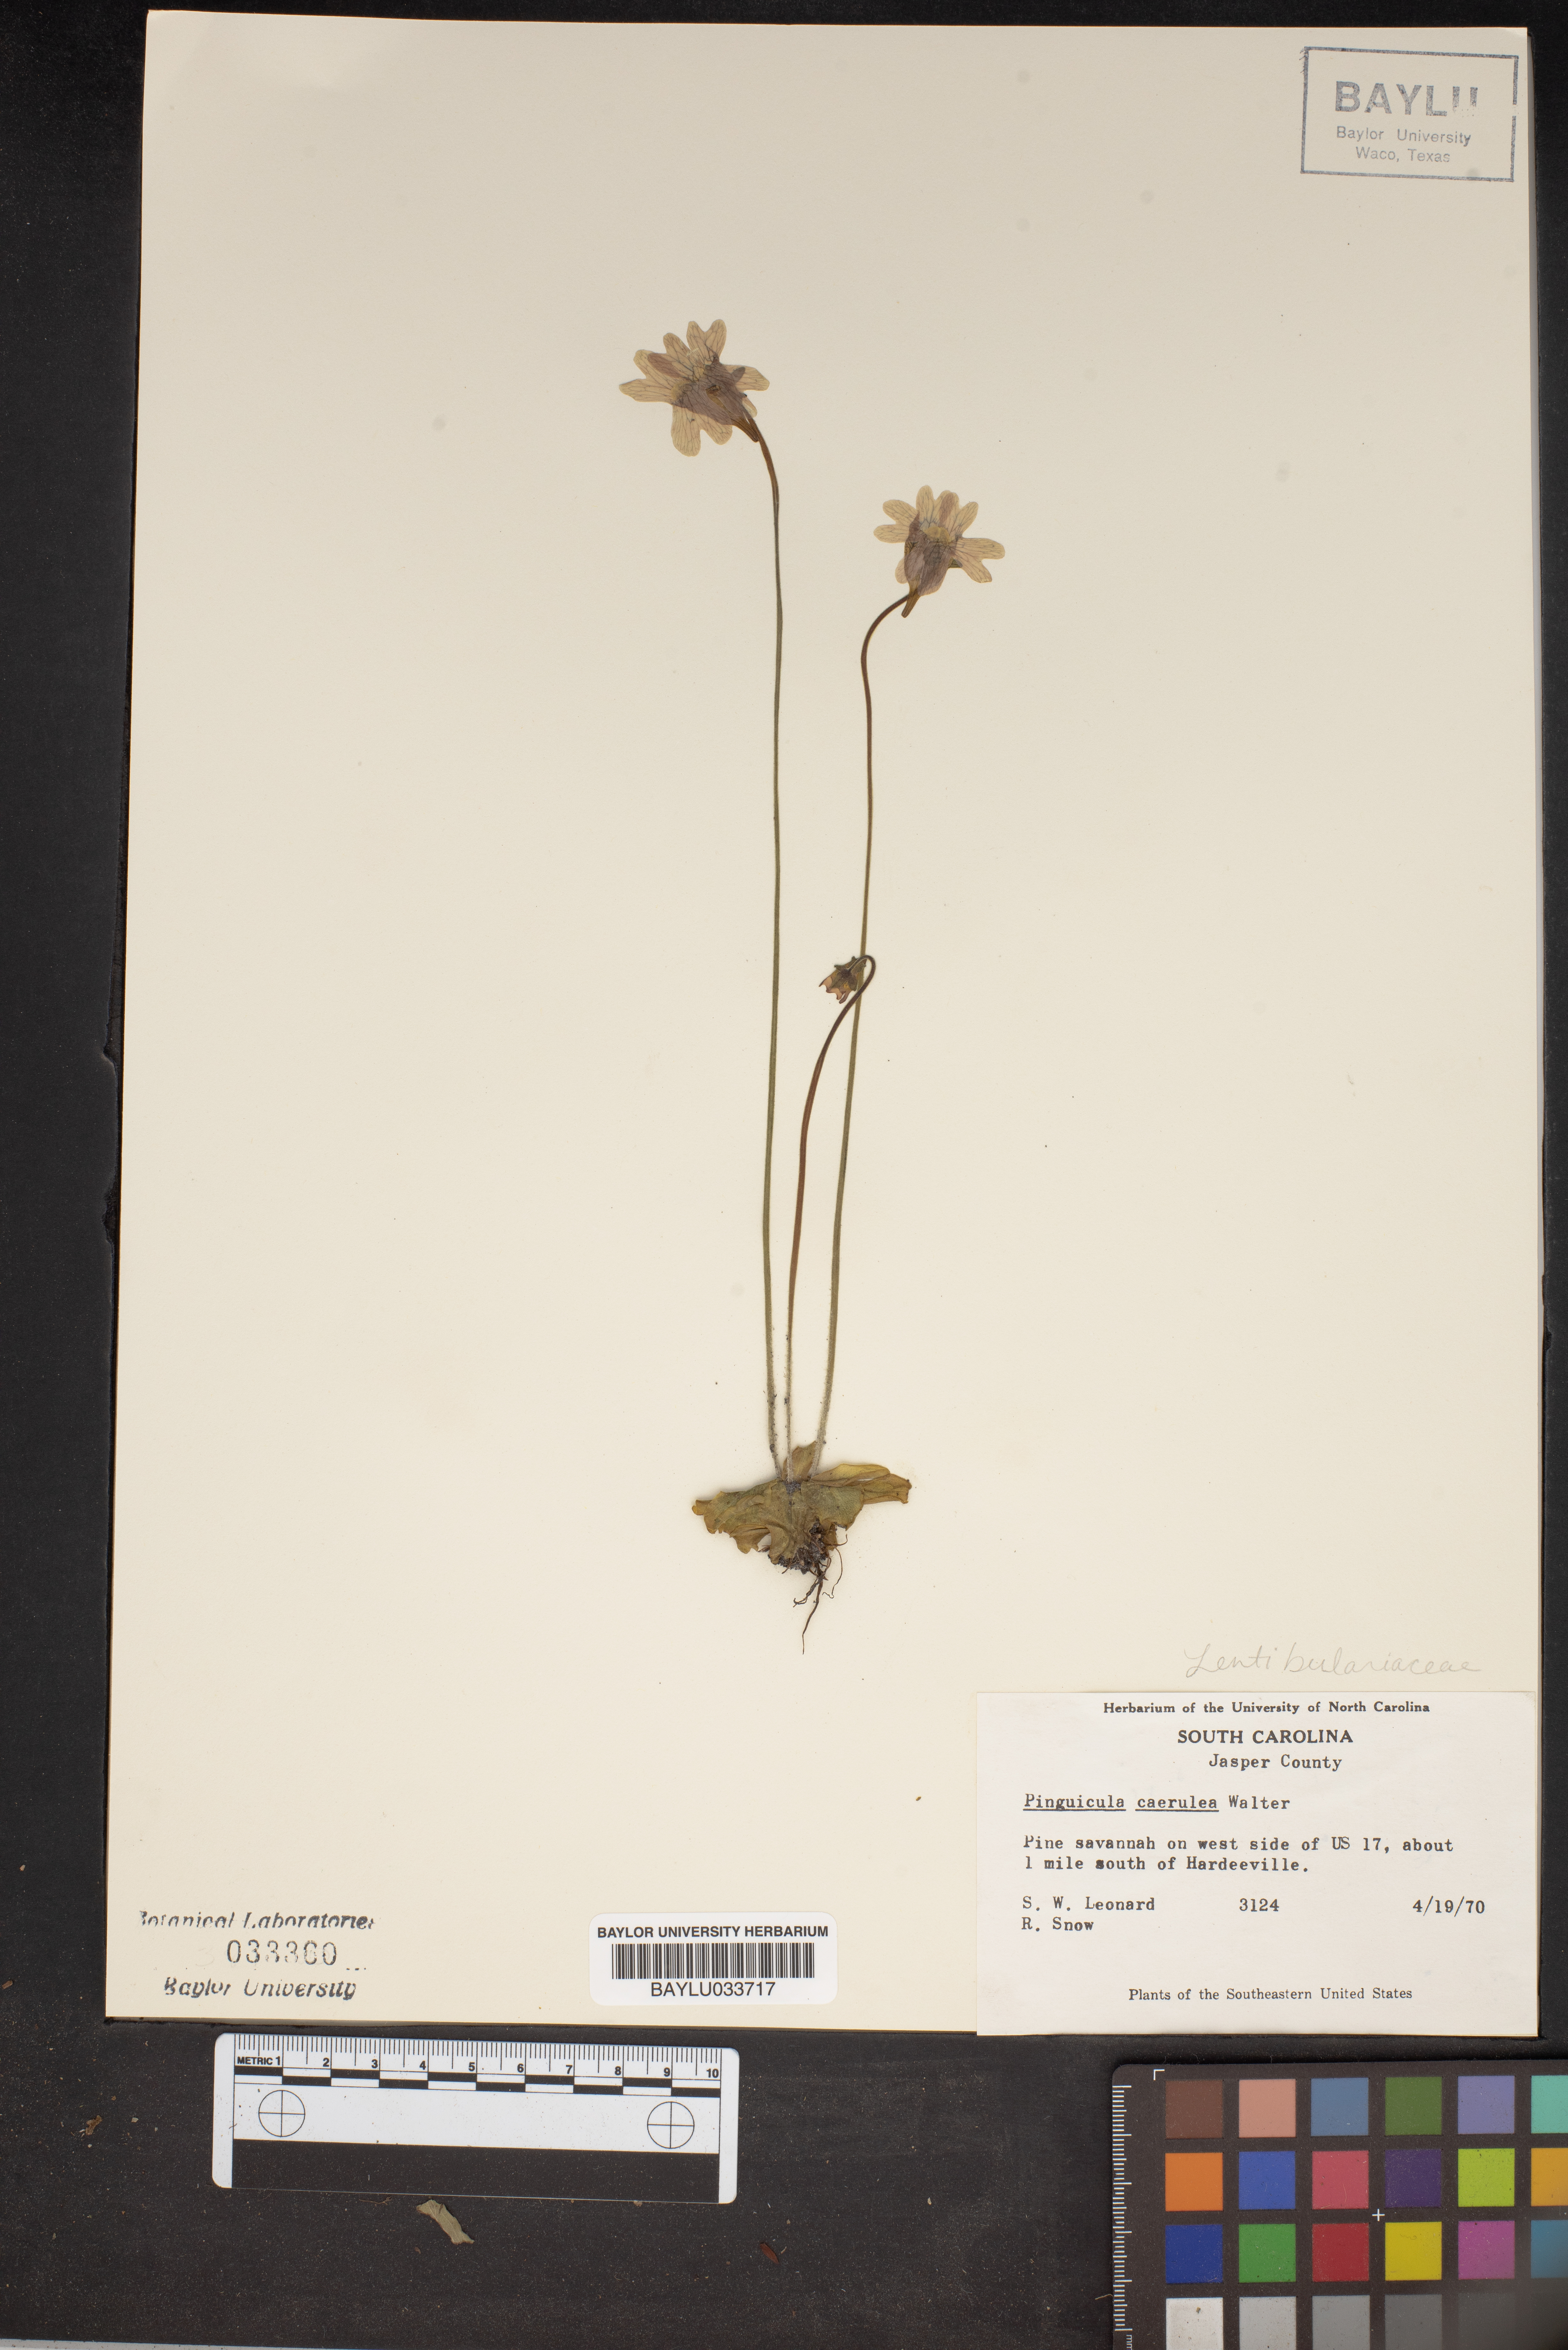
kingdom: Plantae
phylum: Tracheophyta
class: Magnoliopsida
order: Lamiales
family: Lentibulariaceae
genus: Pinguicula
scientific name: Pinguicula caerulea
